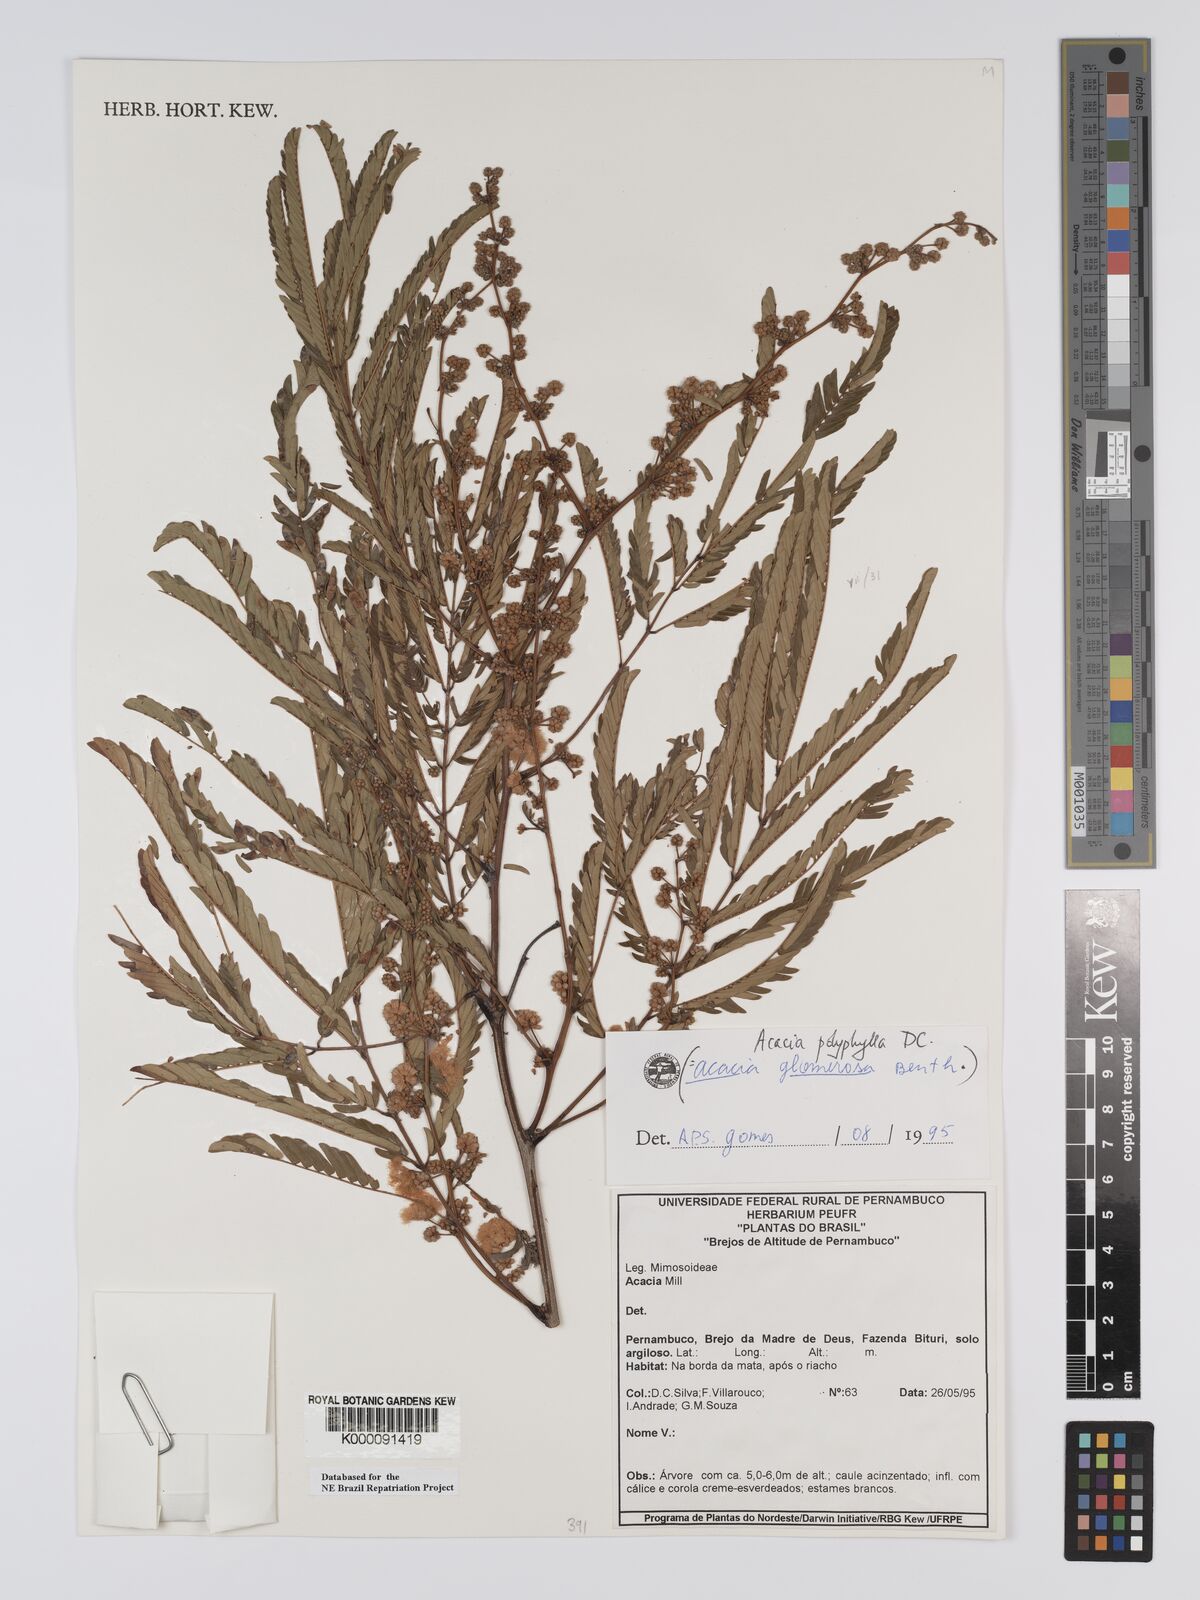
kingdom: Plantae
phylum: Tracheophyta
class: Magnoliopsida
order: Fabales
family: Fabaceae
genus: Senegalia
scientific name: Senegalia polyphylla
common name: White-tamarind
